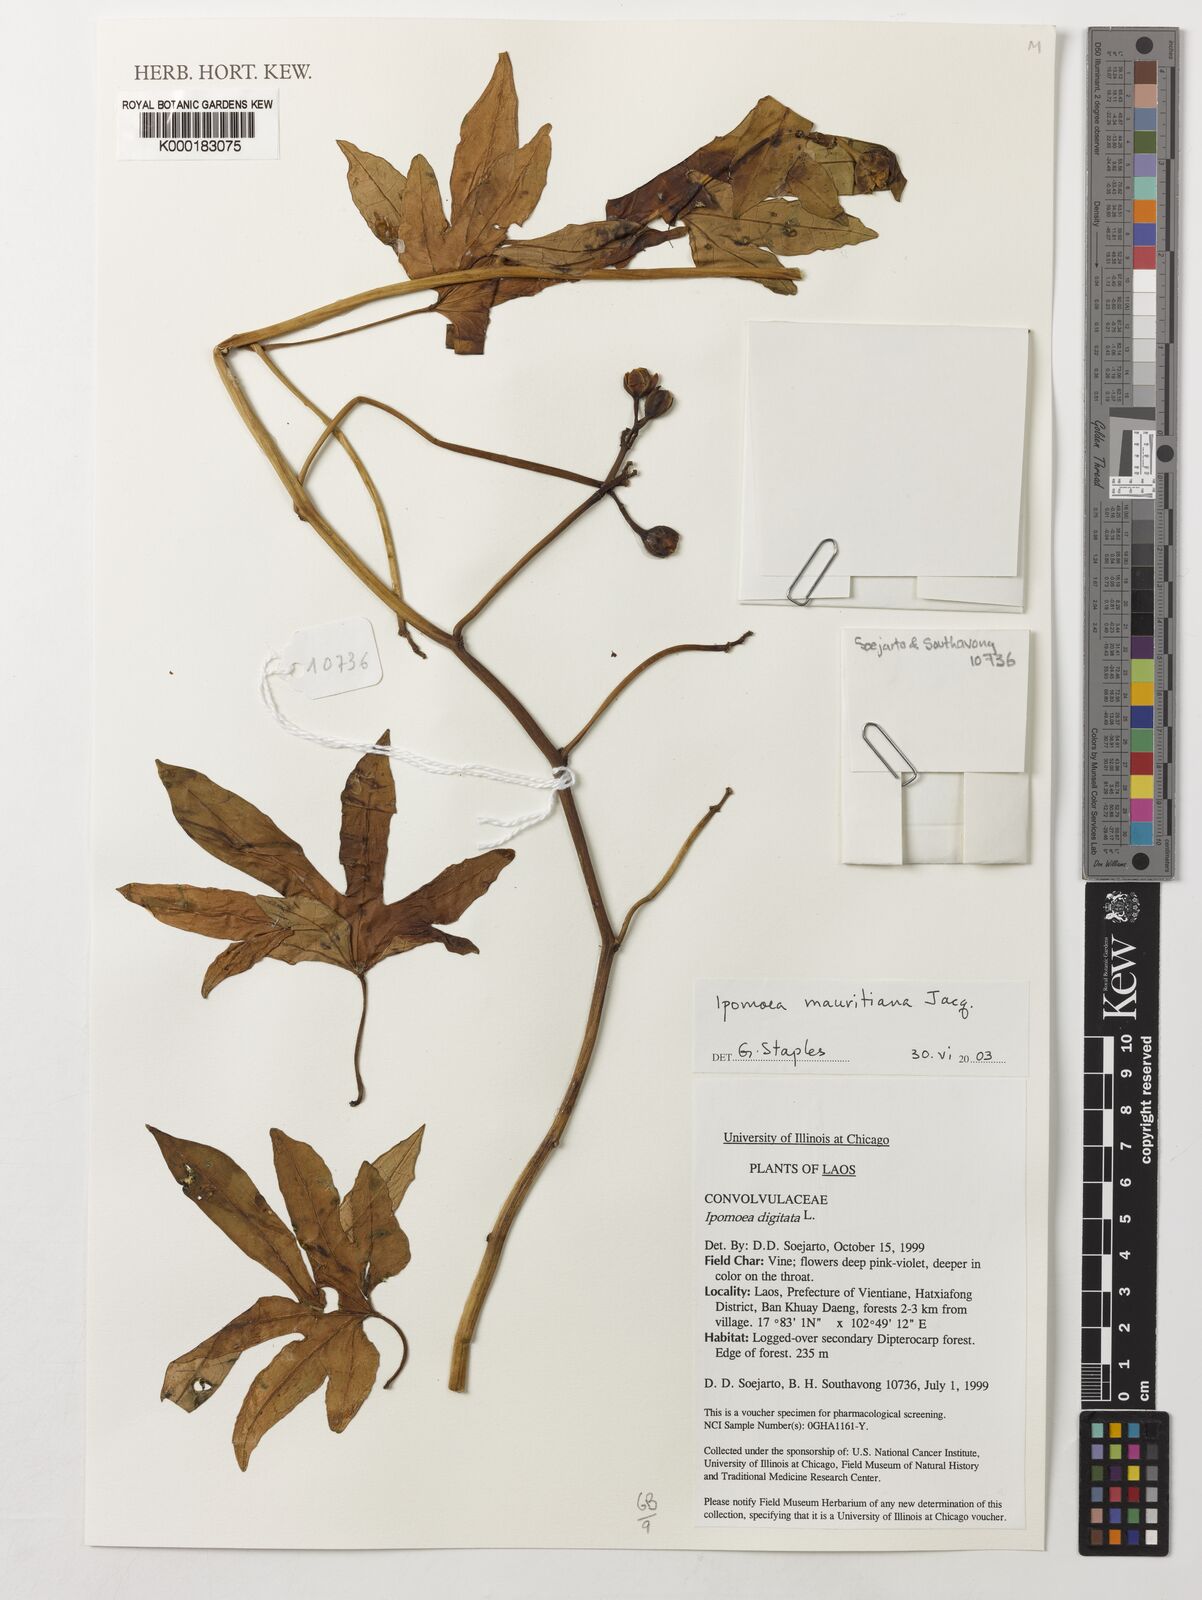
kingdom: Plantae
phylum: Tracheophyta
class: Magnoliopsida
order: Solanales
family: Convolvulaceae
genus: Ipomoea
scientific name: Ipomoea mauritiana
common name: Mauritanian convolvulus
